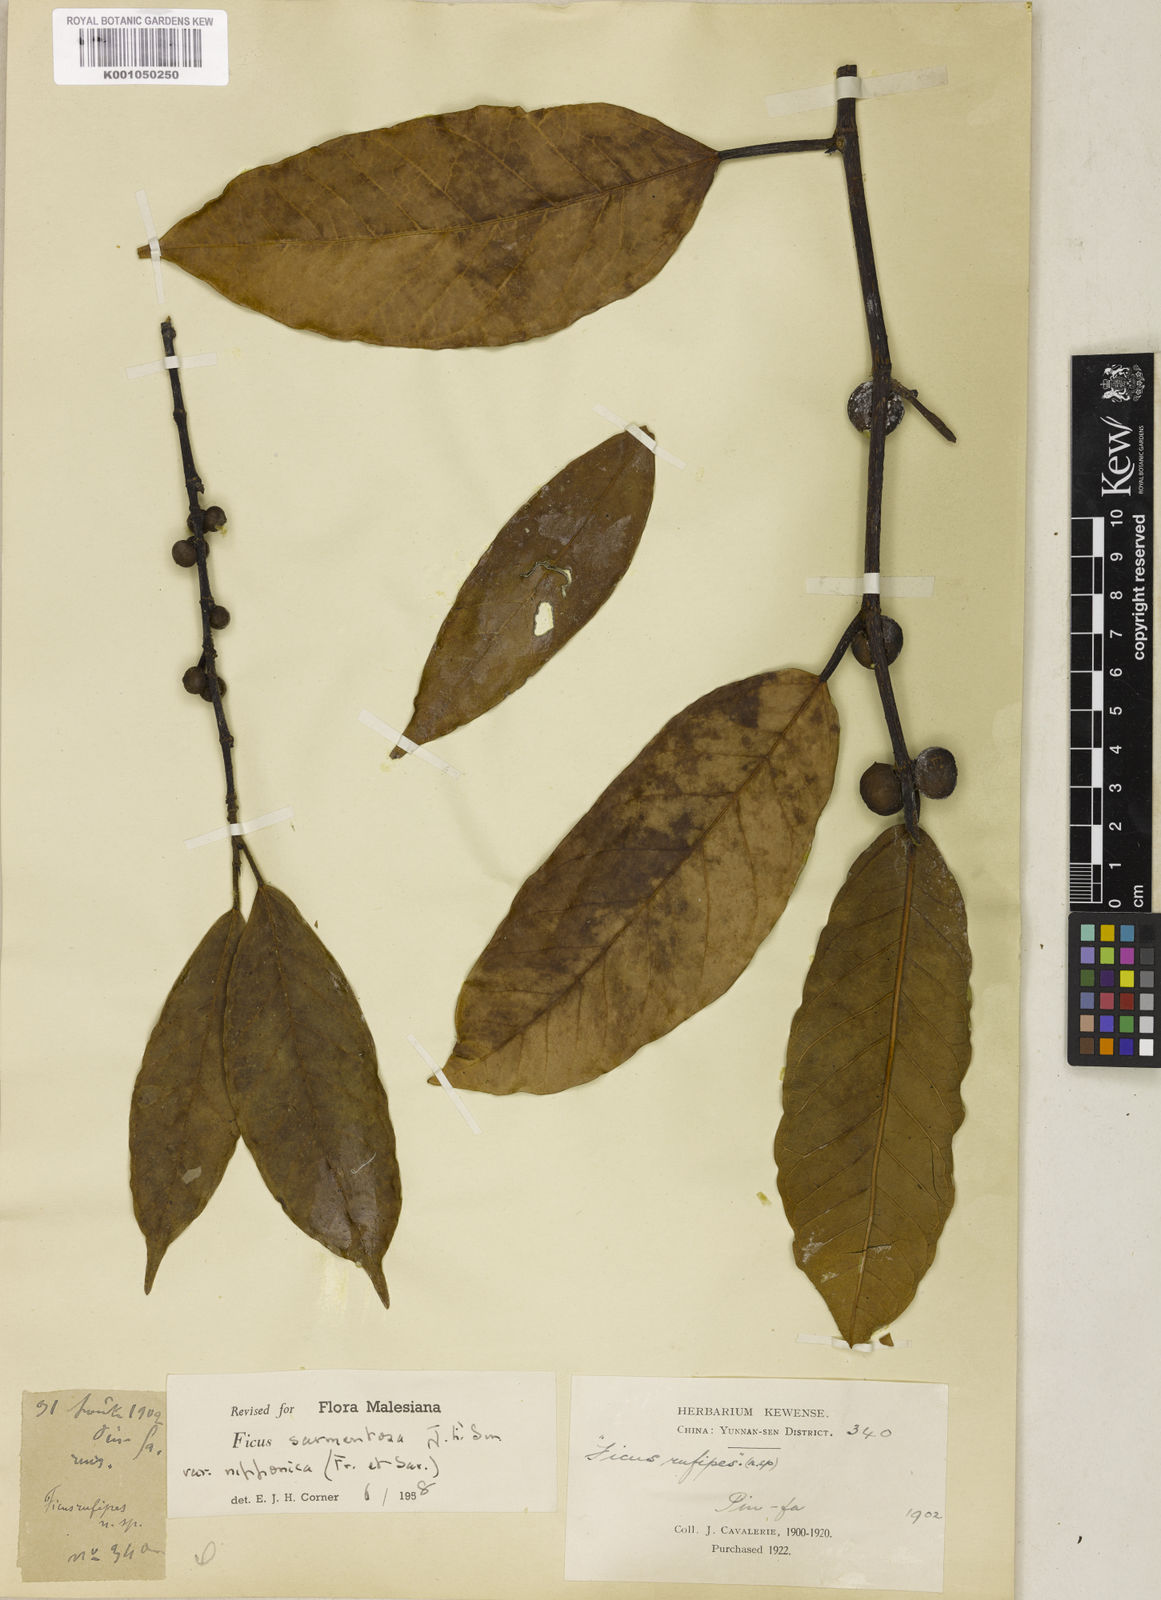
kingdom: Plantae
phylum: Tracheophyta
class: Magnoliopsida
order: Rosales
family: Moraceae
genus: Ficus
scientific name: Ficus sarmentosa
